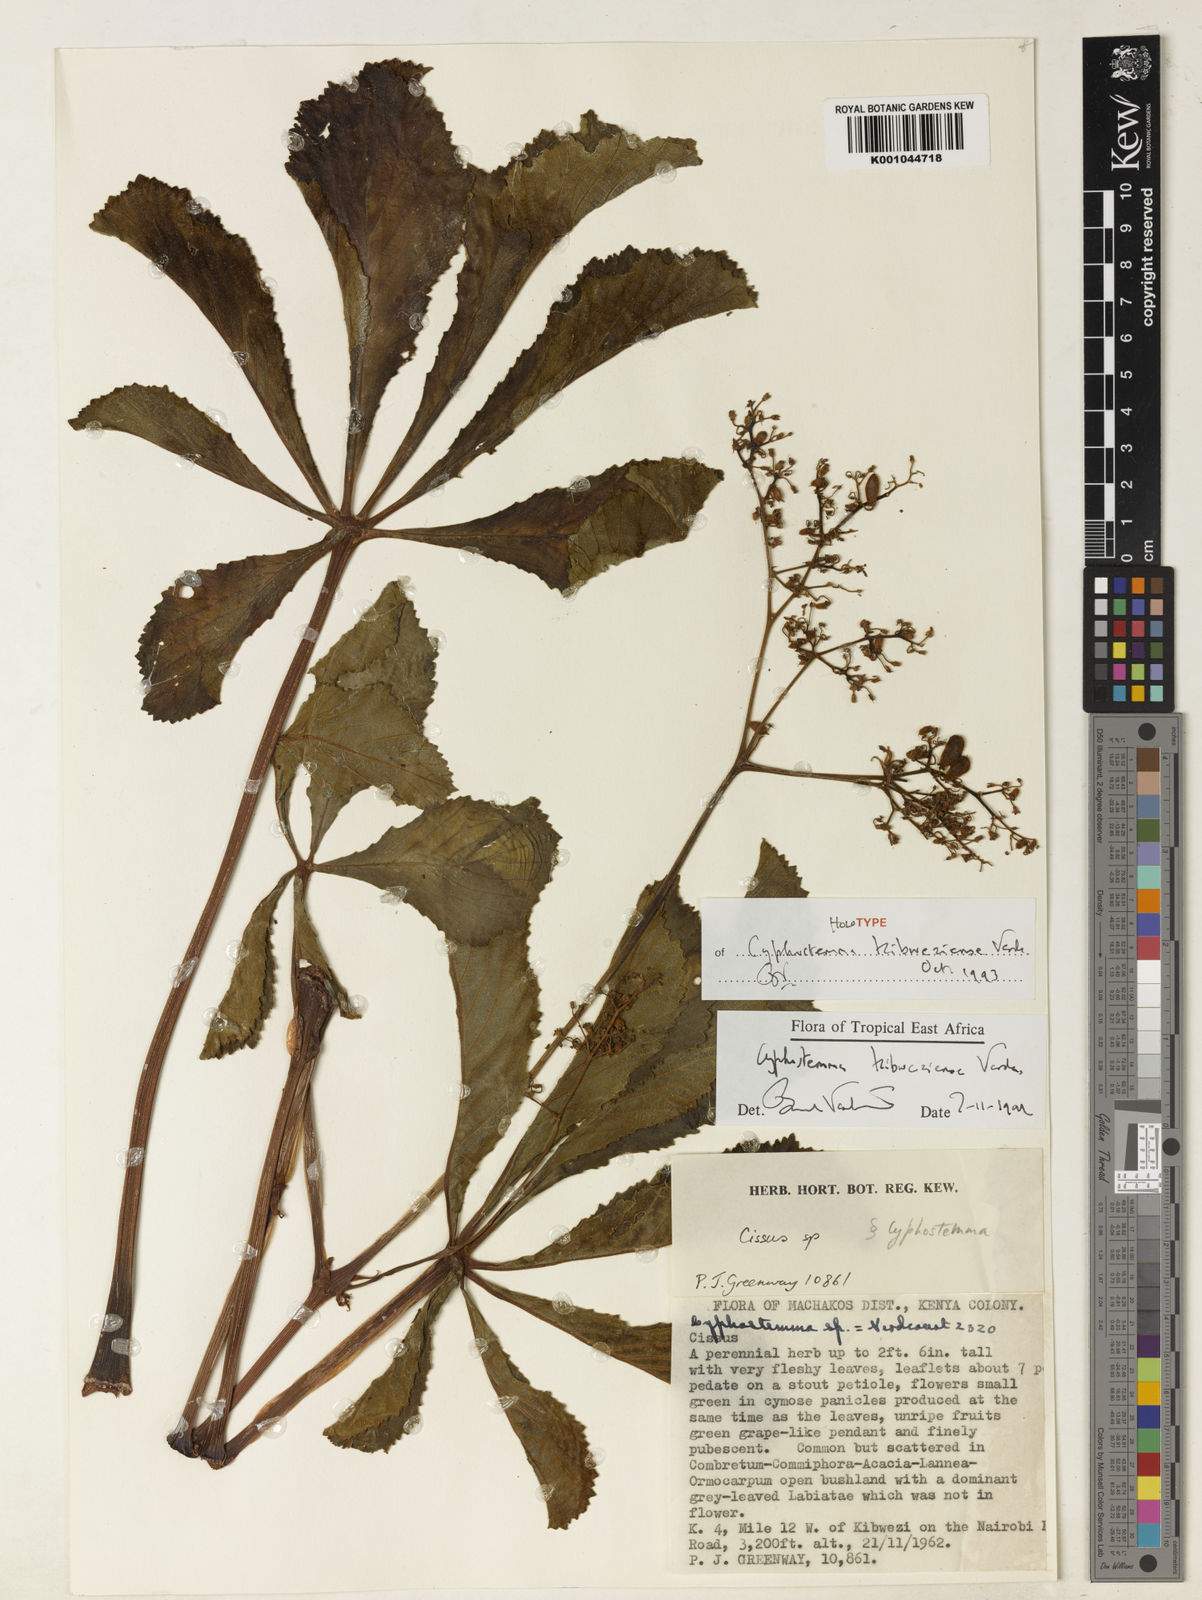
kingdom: Plantae
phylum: Tracheophyta
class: Magnoliopsida
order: Vitales
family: Vitaceae
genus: Cyphostemma
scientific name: Cyphostemma kibweziense
